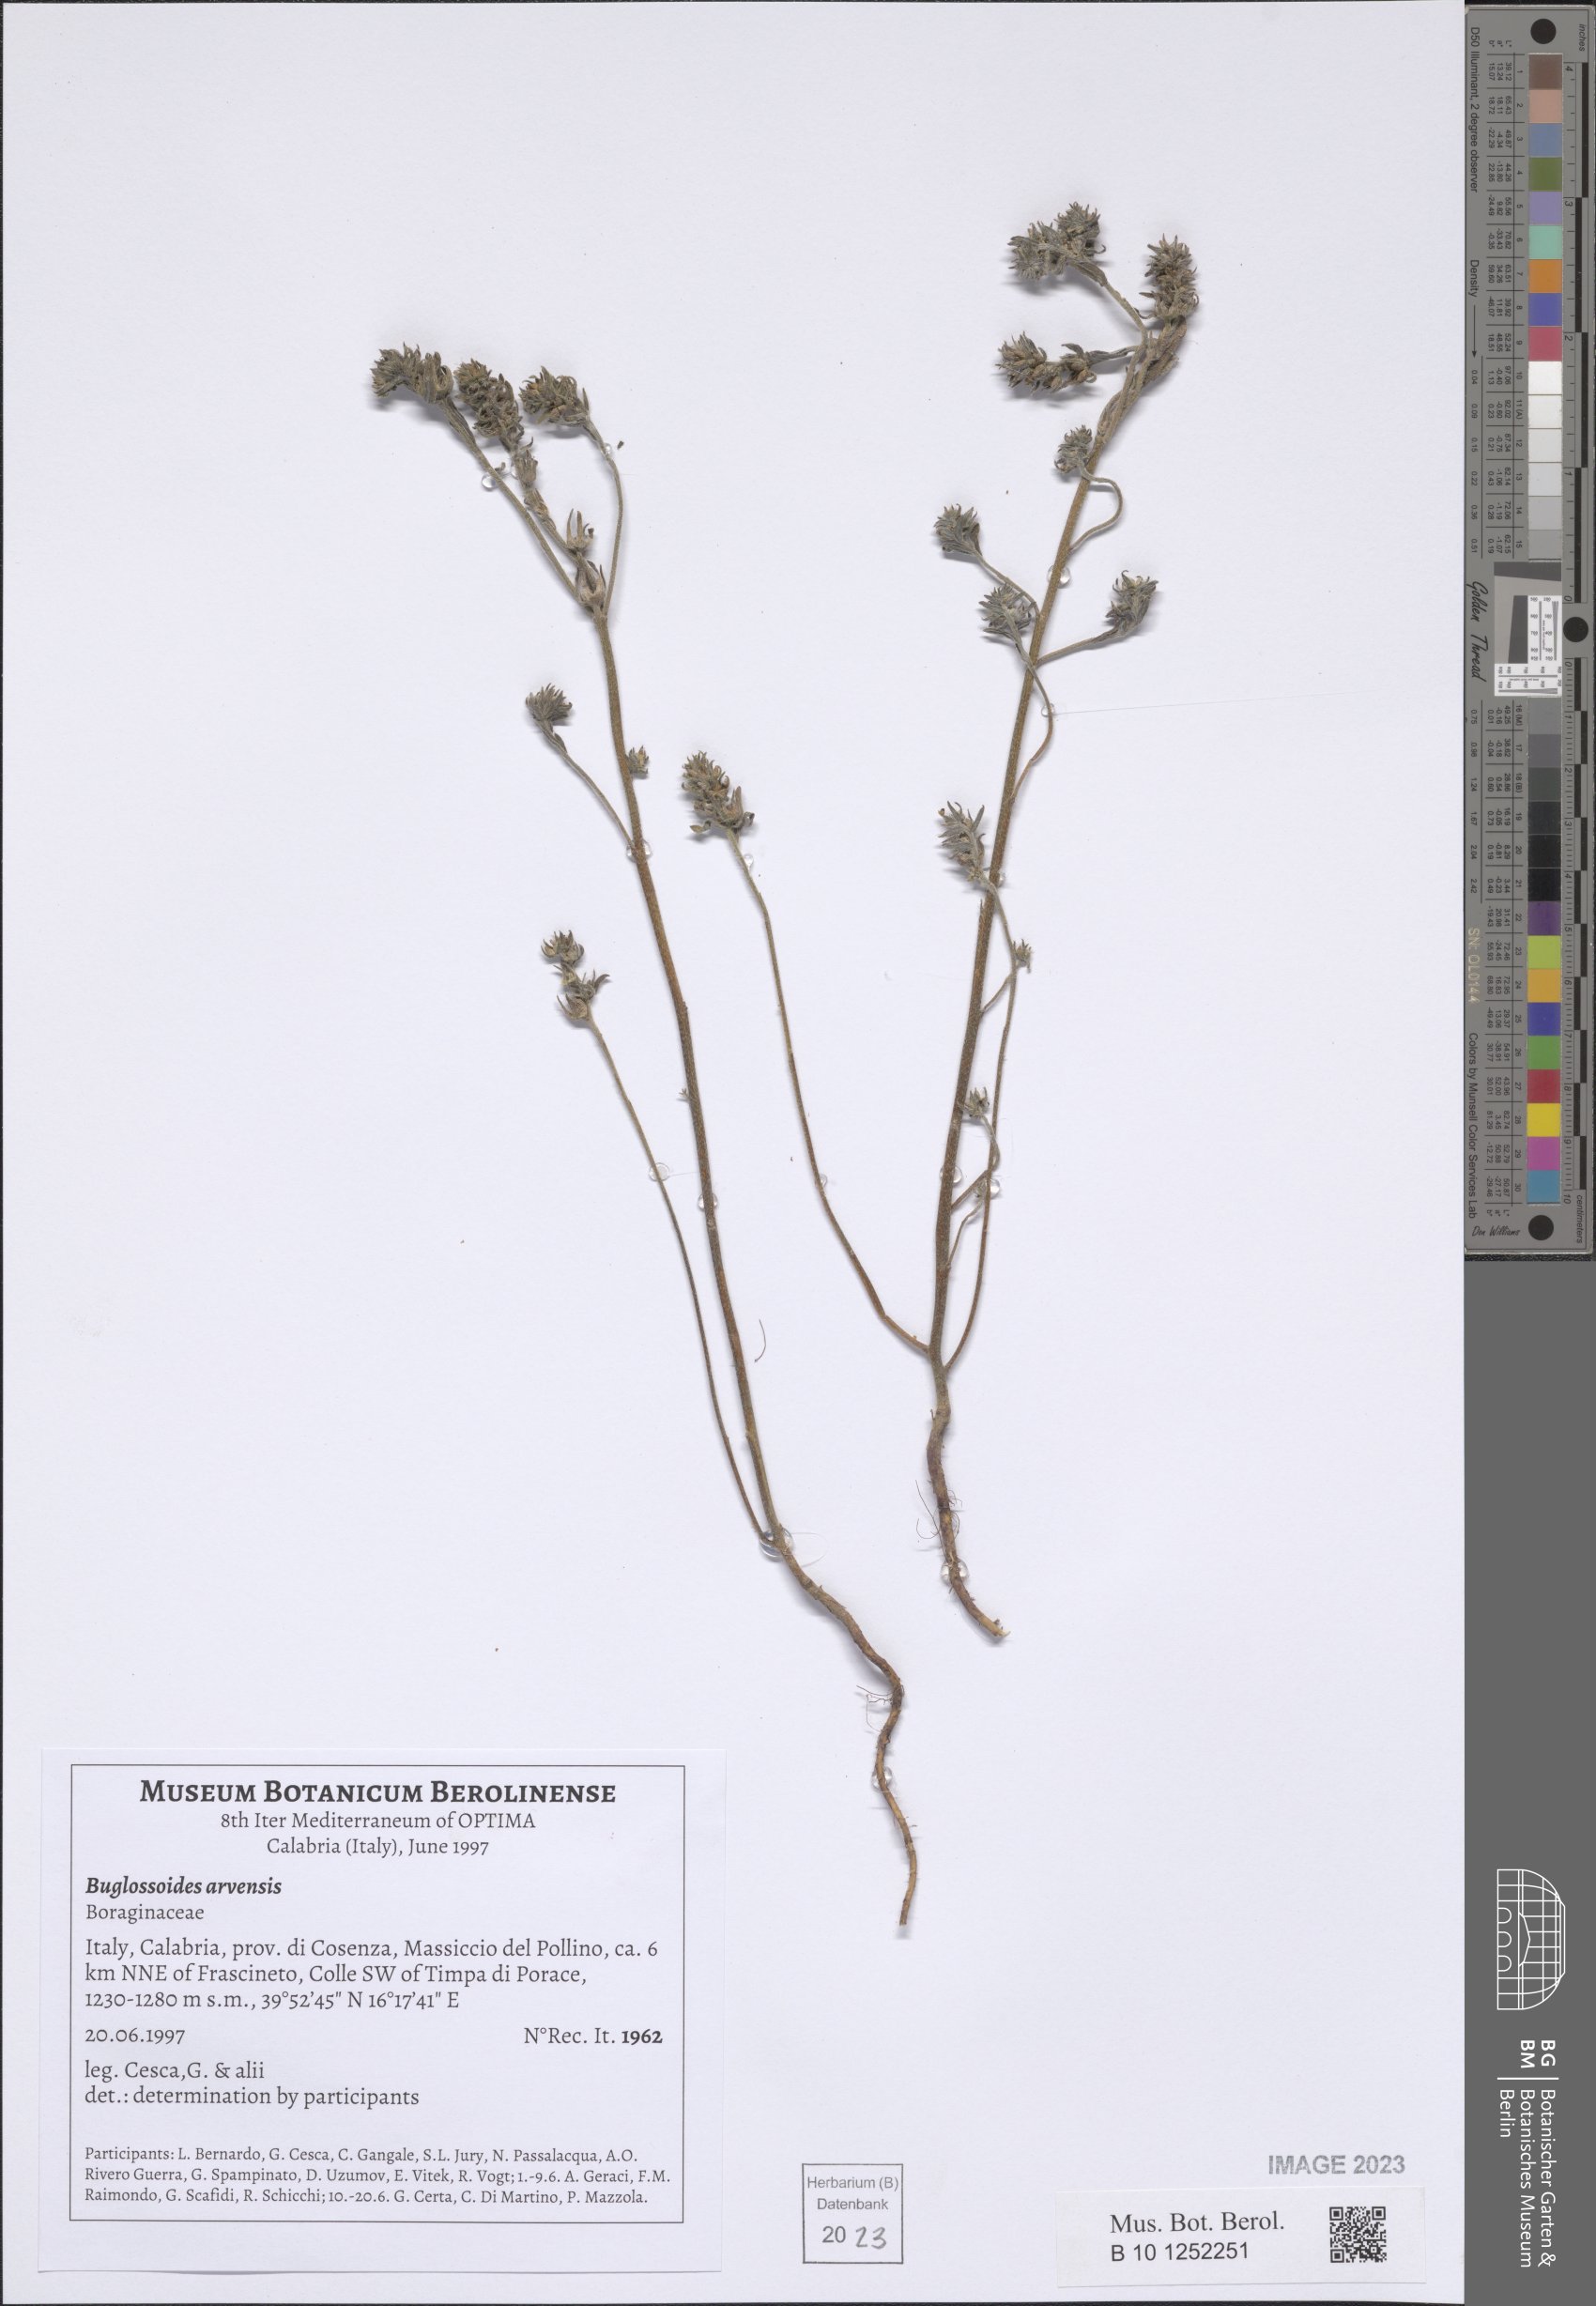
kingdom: Plantae
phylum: Tracheophyta
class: Magnoliopsida
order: Boraginales
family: Boraginaceae
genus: Buglossoides
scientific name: Buglossoides arvensis
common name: Corn gromwell
